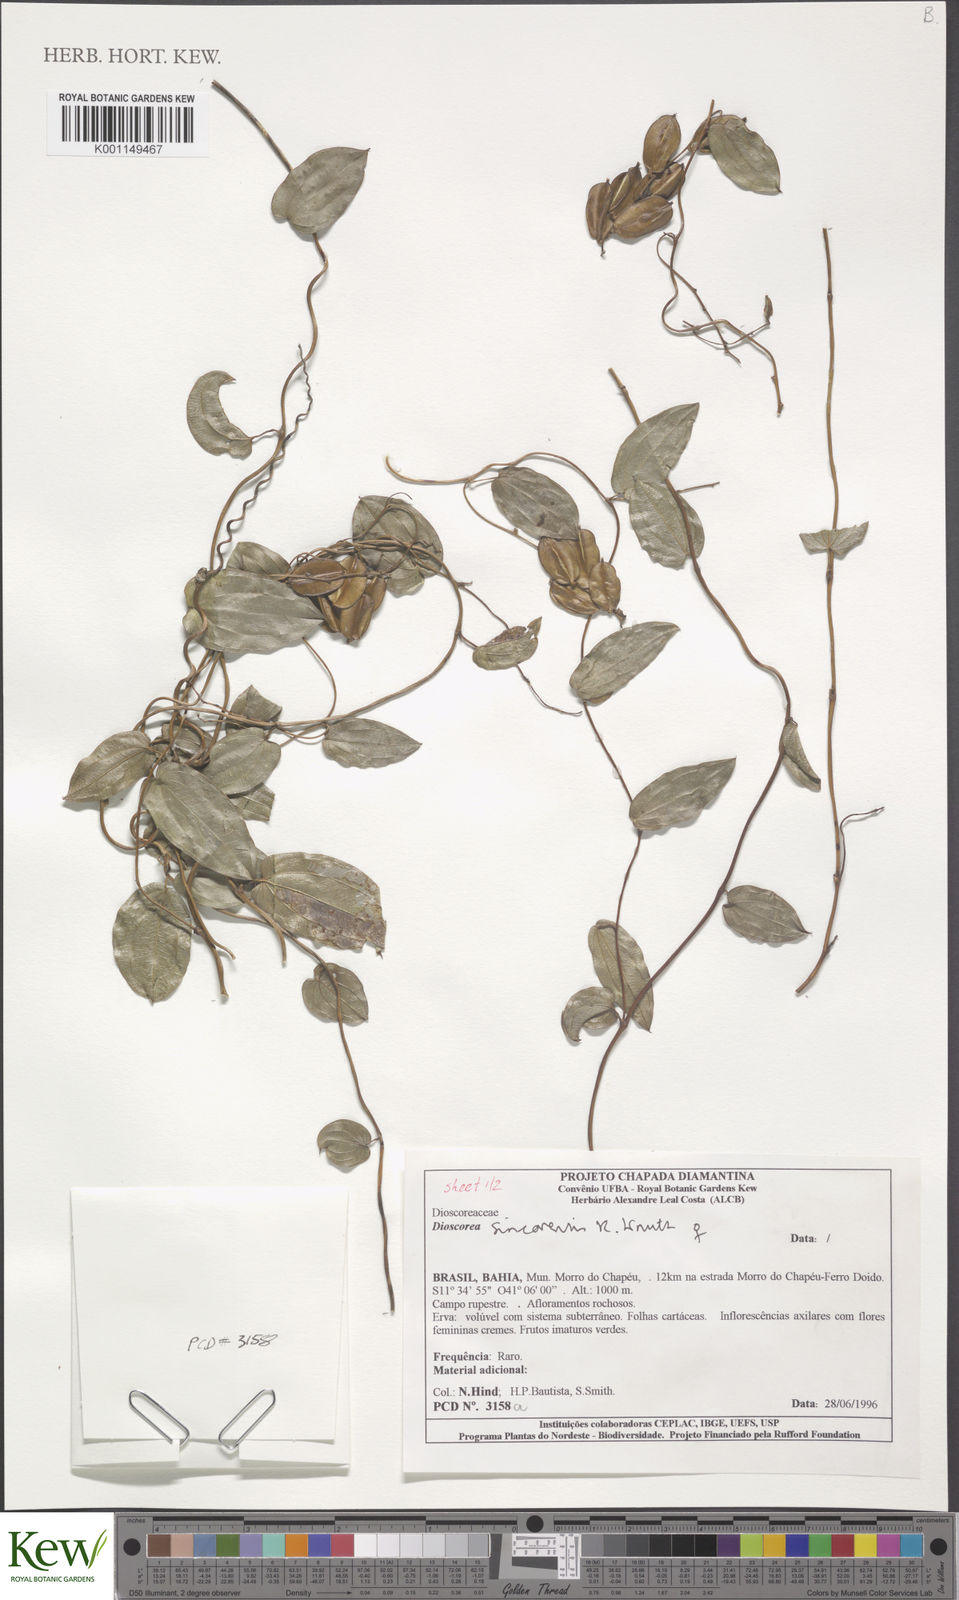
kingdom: Plantae
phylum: Tracheophyta
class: Liliopsida
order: Dioscoreales
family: Dioscoreaceae
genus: Dioscorea
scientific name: Dioscorea sincorensis
